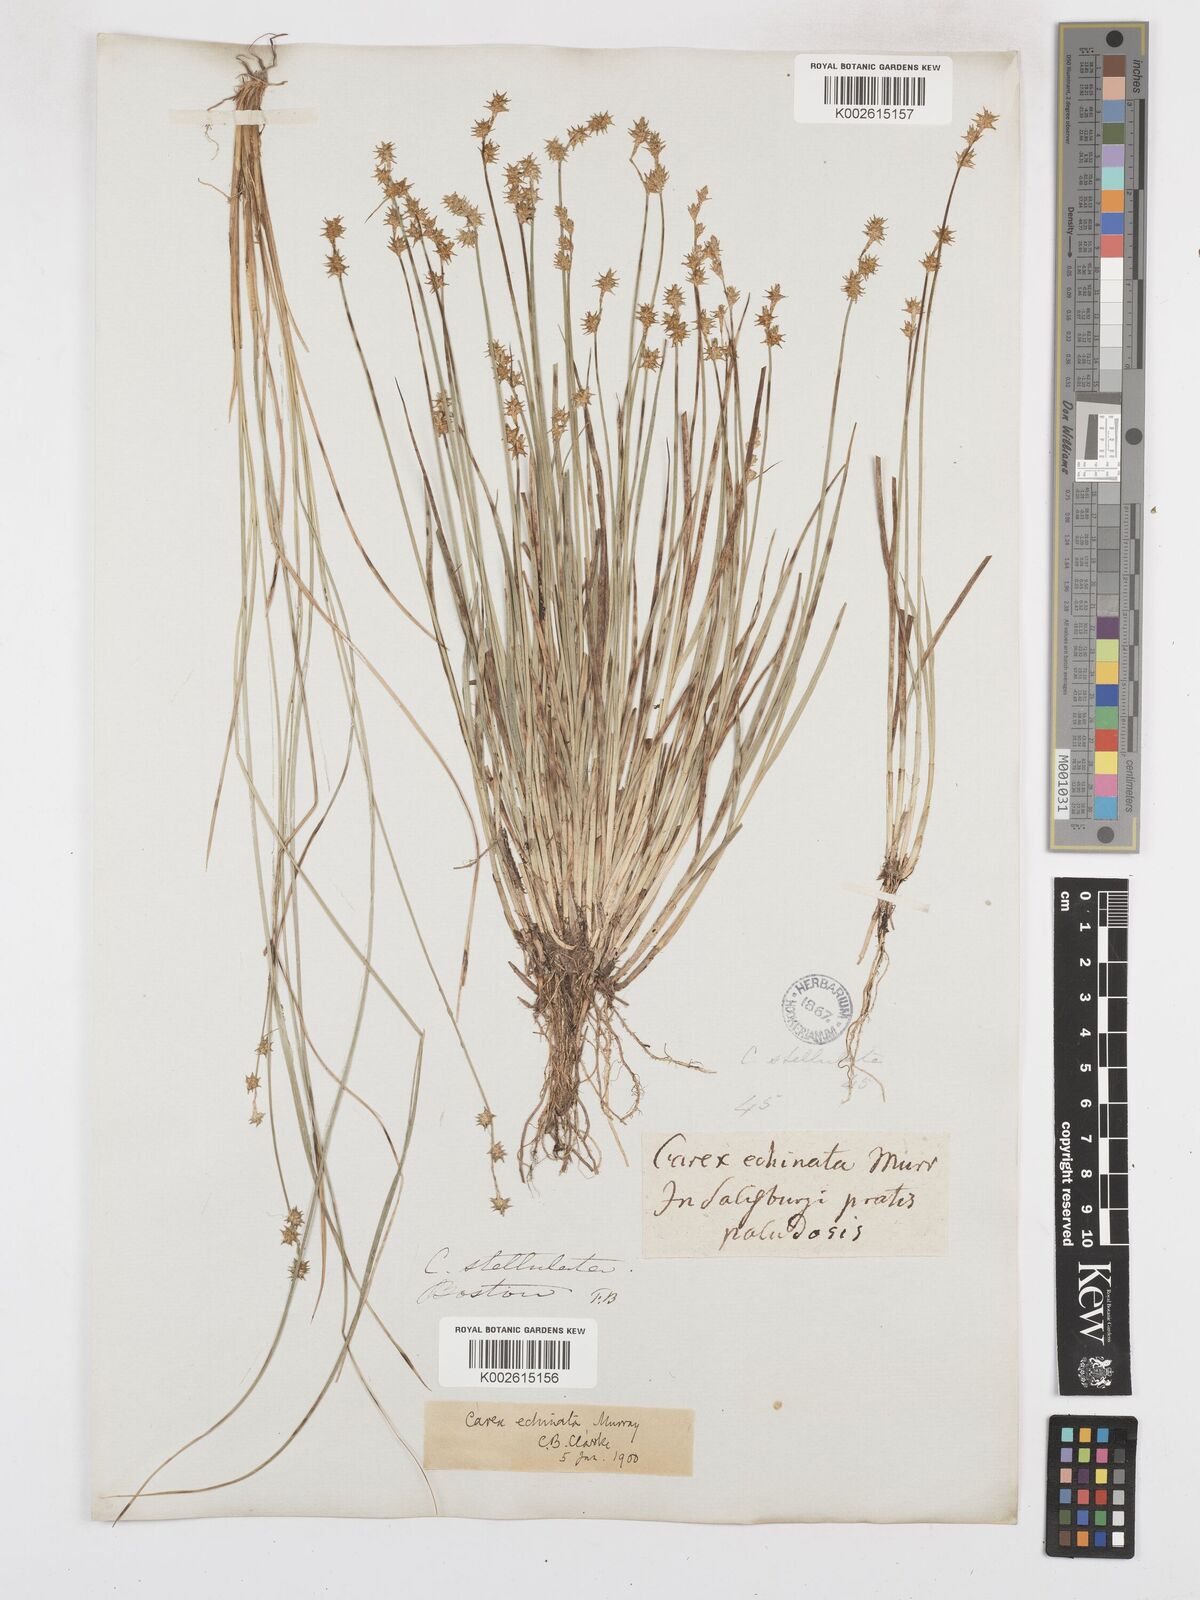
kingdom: Plantae
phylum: Tracheophyta
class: Liliopsida
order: Poales
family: Cyperaceae
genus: Carex
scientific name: Carex echinata
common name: Star sedge
